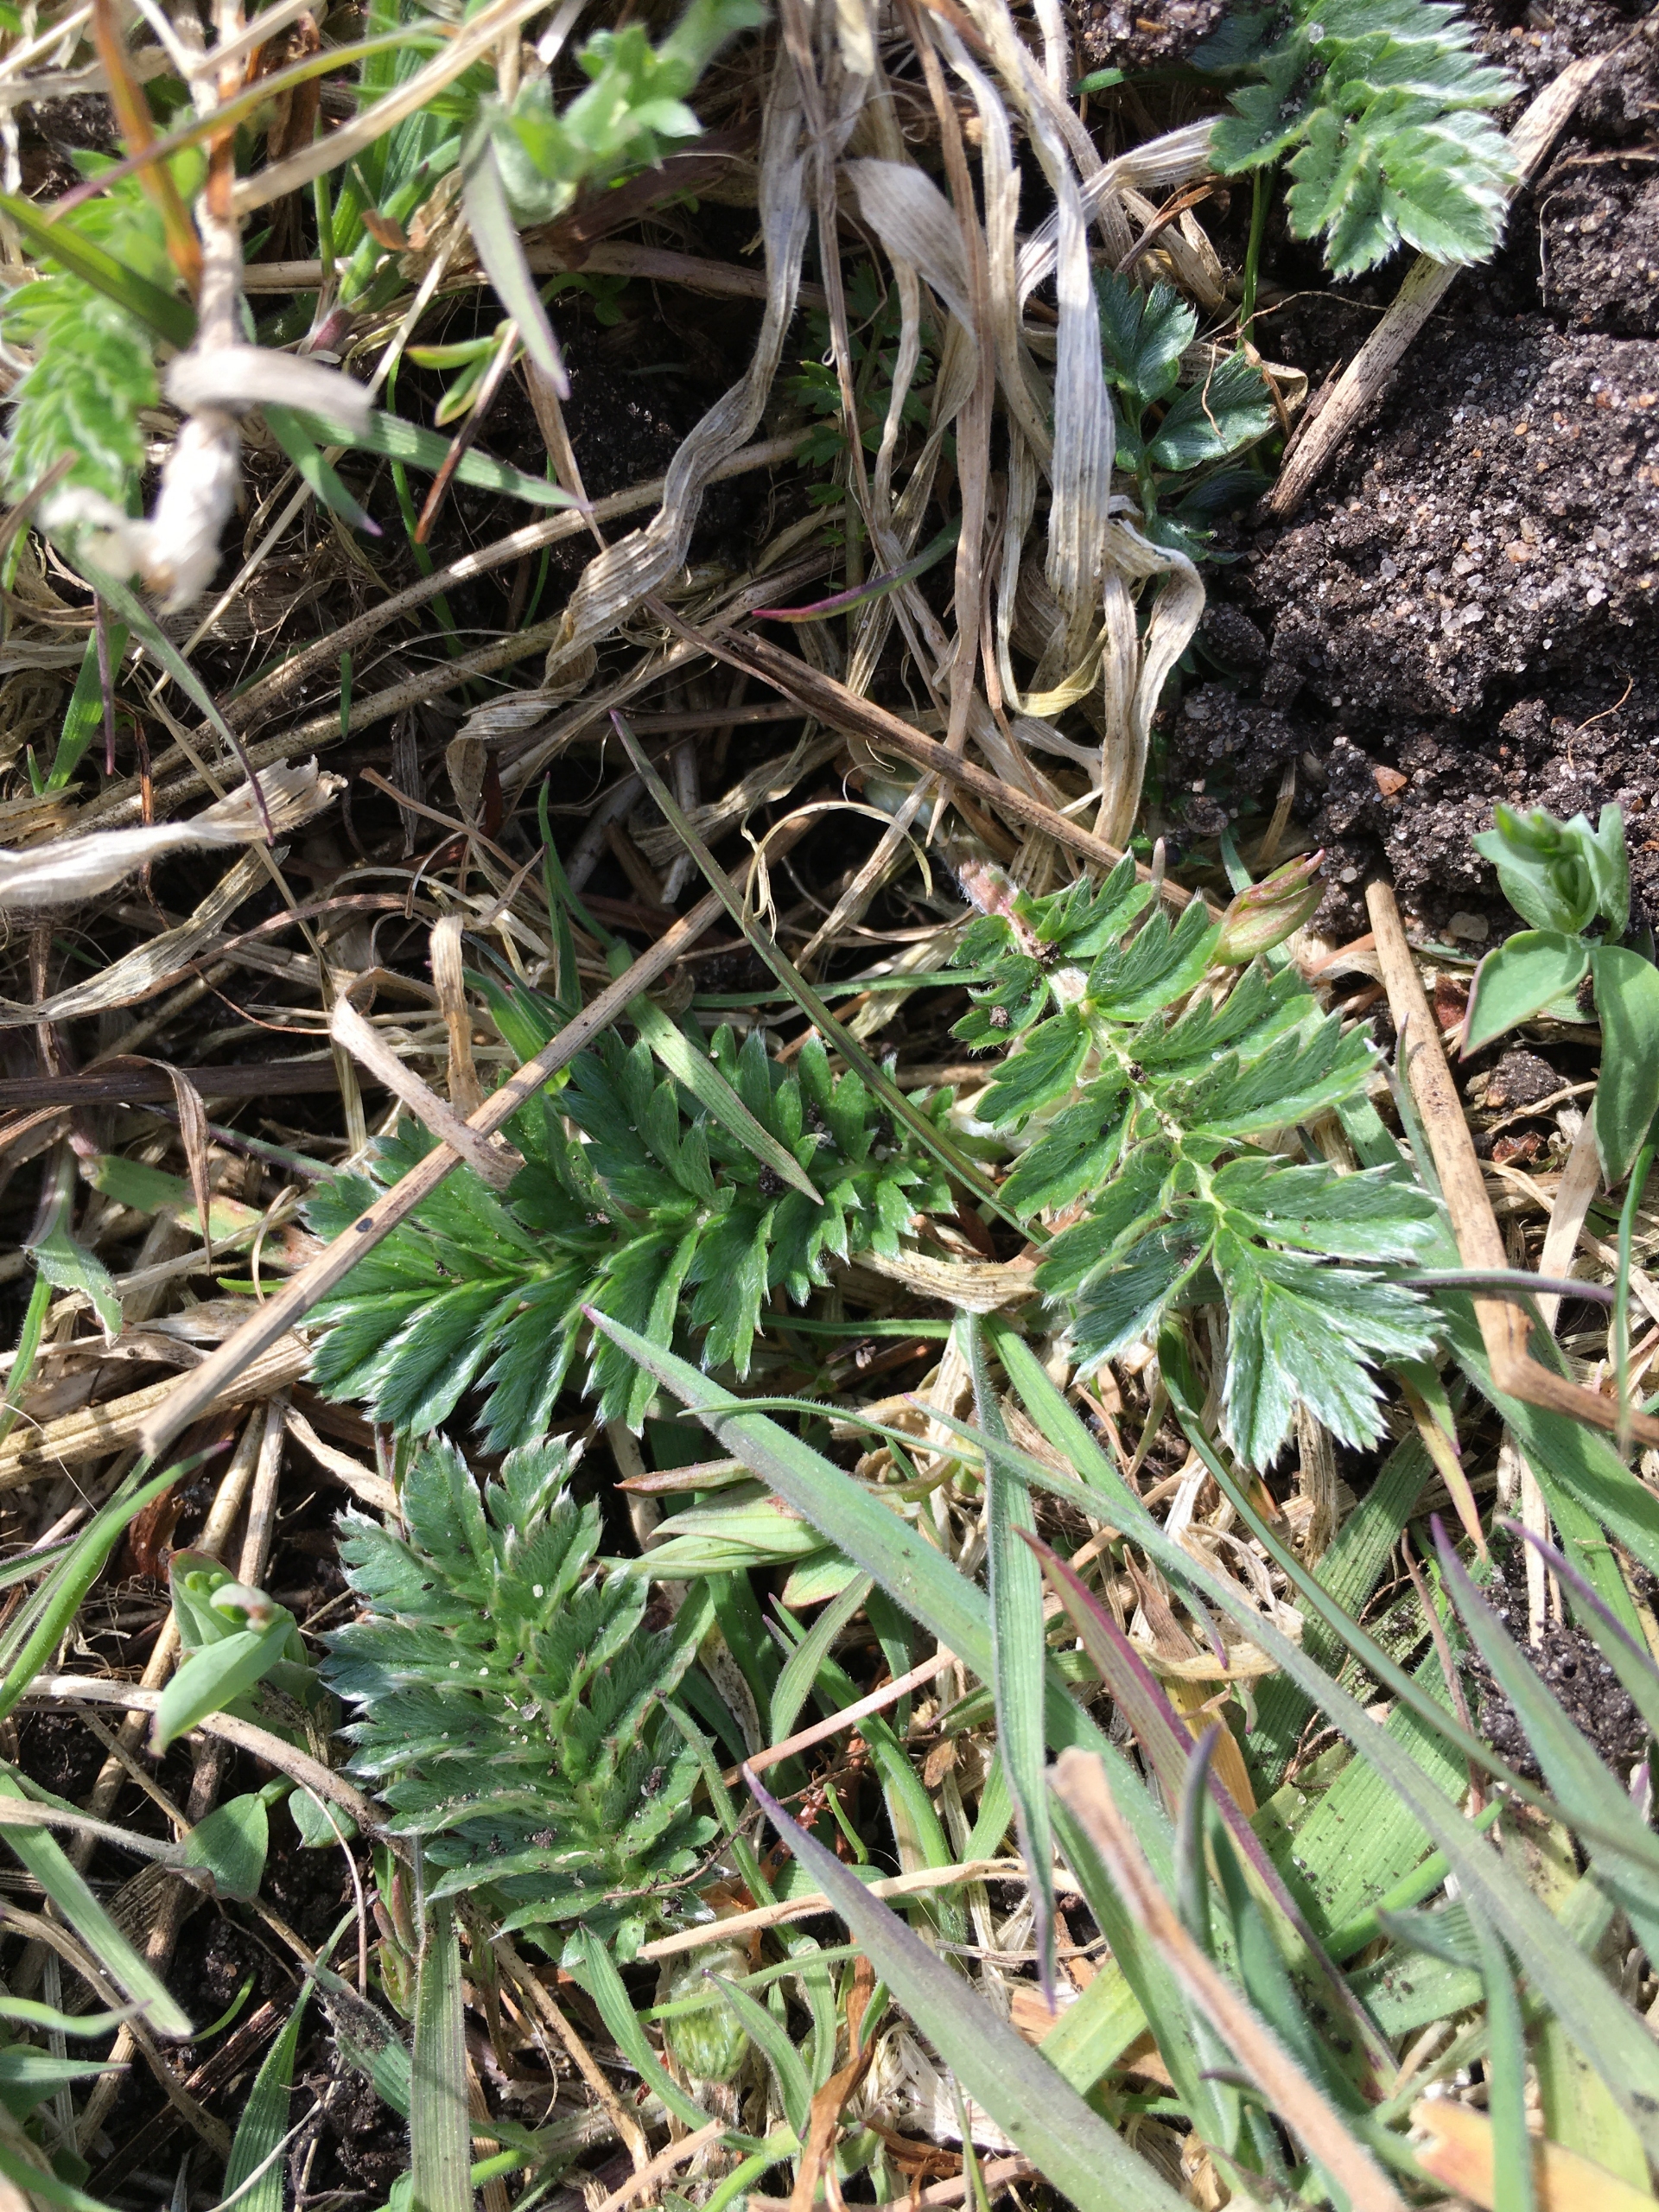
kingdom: Plantae
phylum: Tracheophyta
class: Magnoliopsida
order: Rosales
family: Rosaceae
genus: Argentina
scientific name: Argentina anserina
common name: Gåsepotentil
